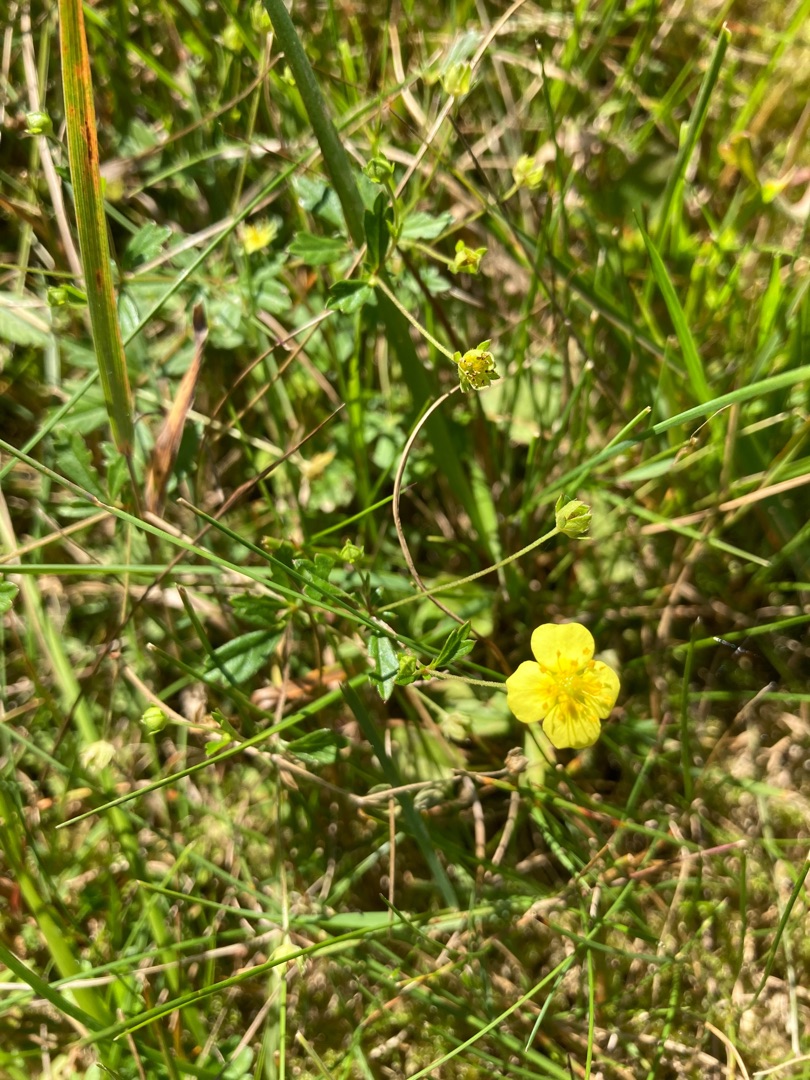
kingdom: Plantae
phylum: Tracheophyta
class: Magnoliopsida
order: Rosales
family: Rosaceae
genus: Potentilla
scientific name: Potentilla erecta
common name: Tormentil
